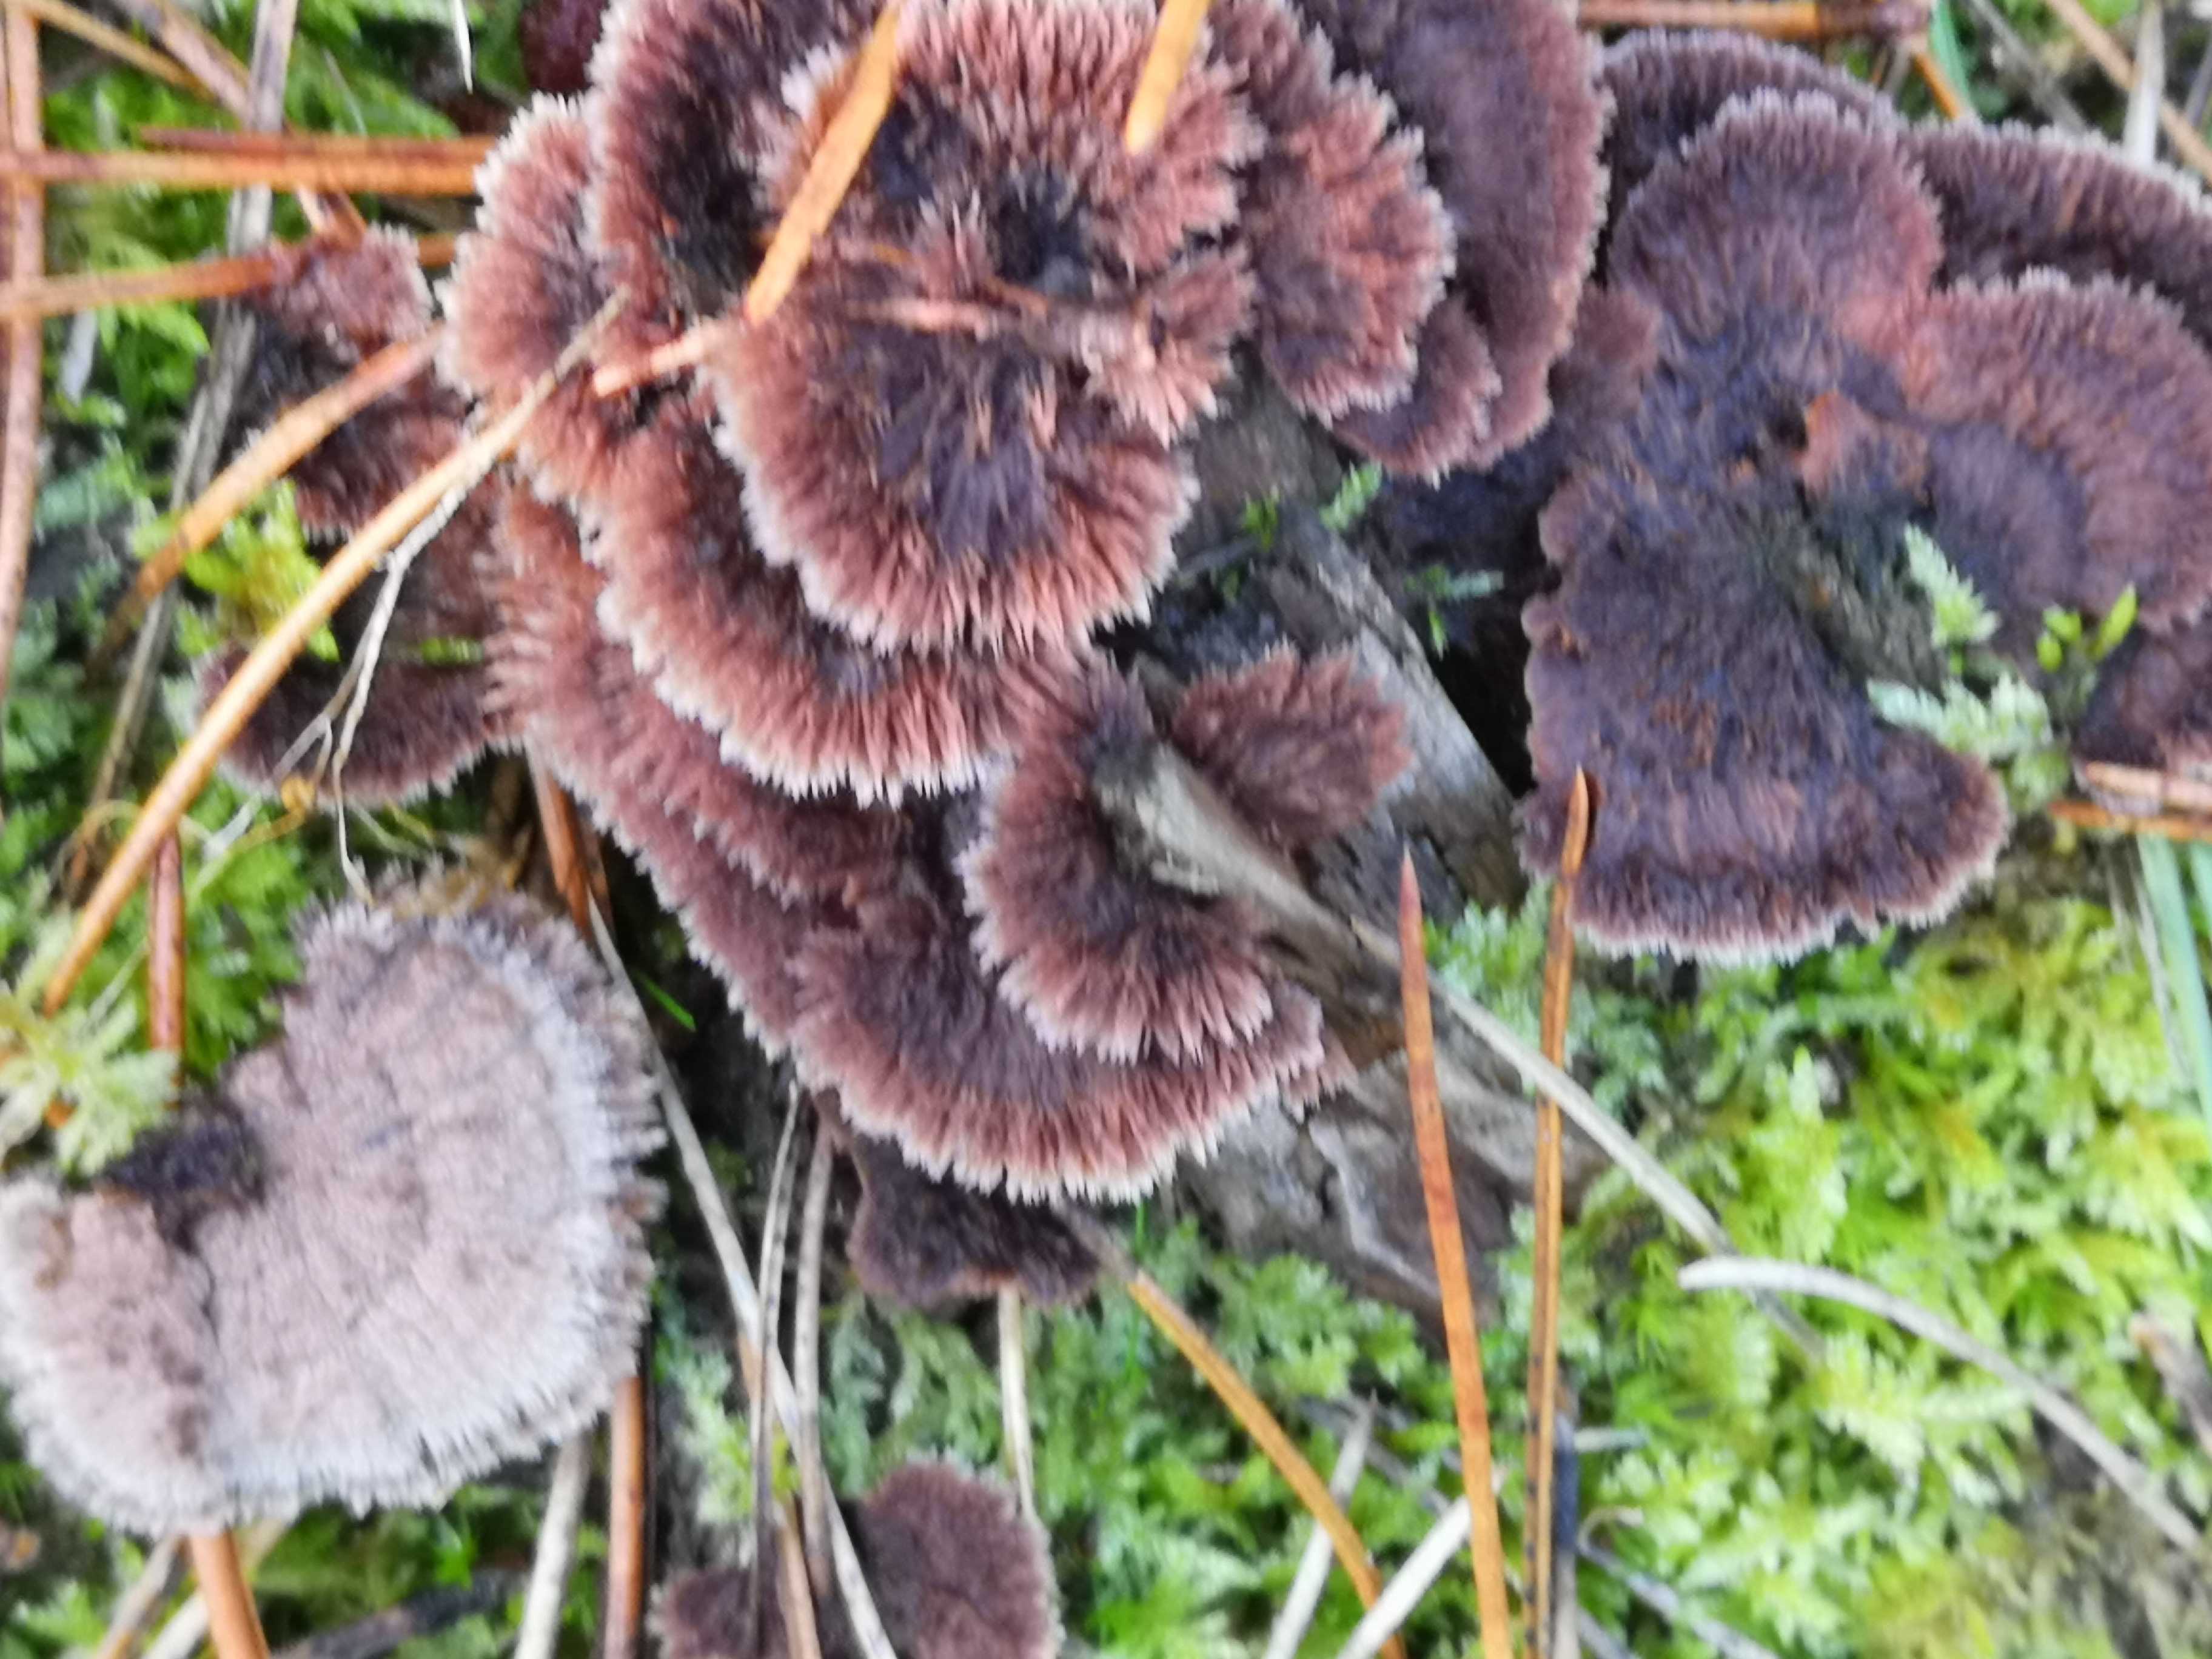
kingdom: Fungi
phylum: Basidiomycota
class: Agaricomycetes
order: Thelephorales
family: Thelephoraceae
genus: Thelephora
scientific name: Thelephora terrestris
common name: fliget frynsesvamp
